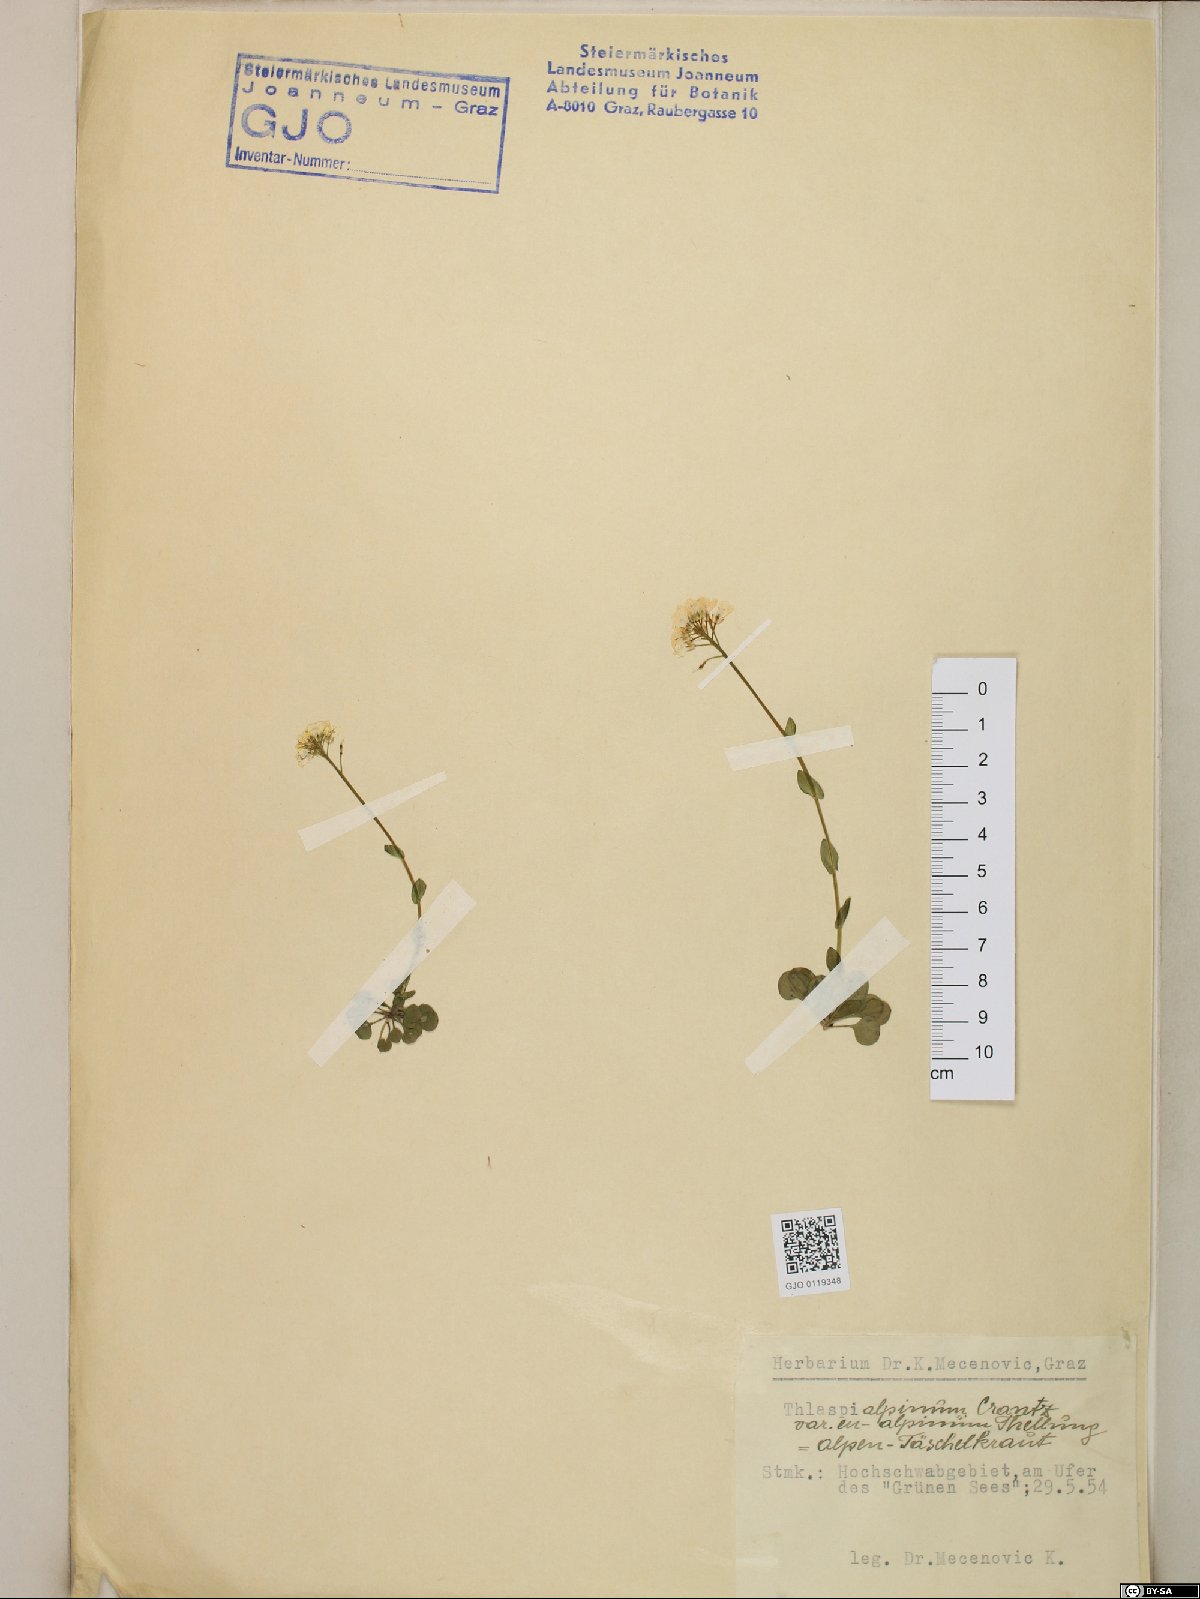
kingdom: Plantae
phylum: Tracheophyta
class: Magnoliopsida
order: Brassicales
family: Brassicaceae
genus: Noccaea
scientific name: Noccaea alpestris
